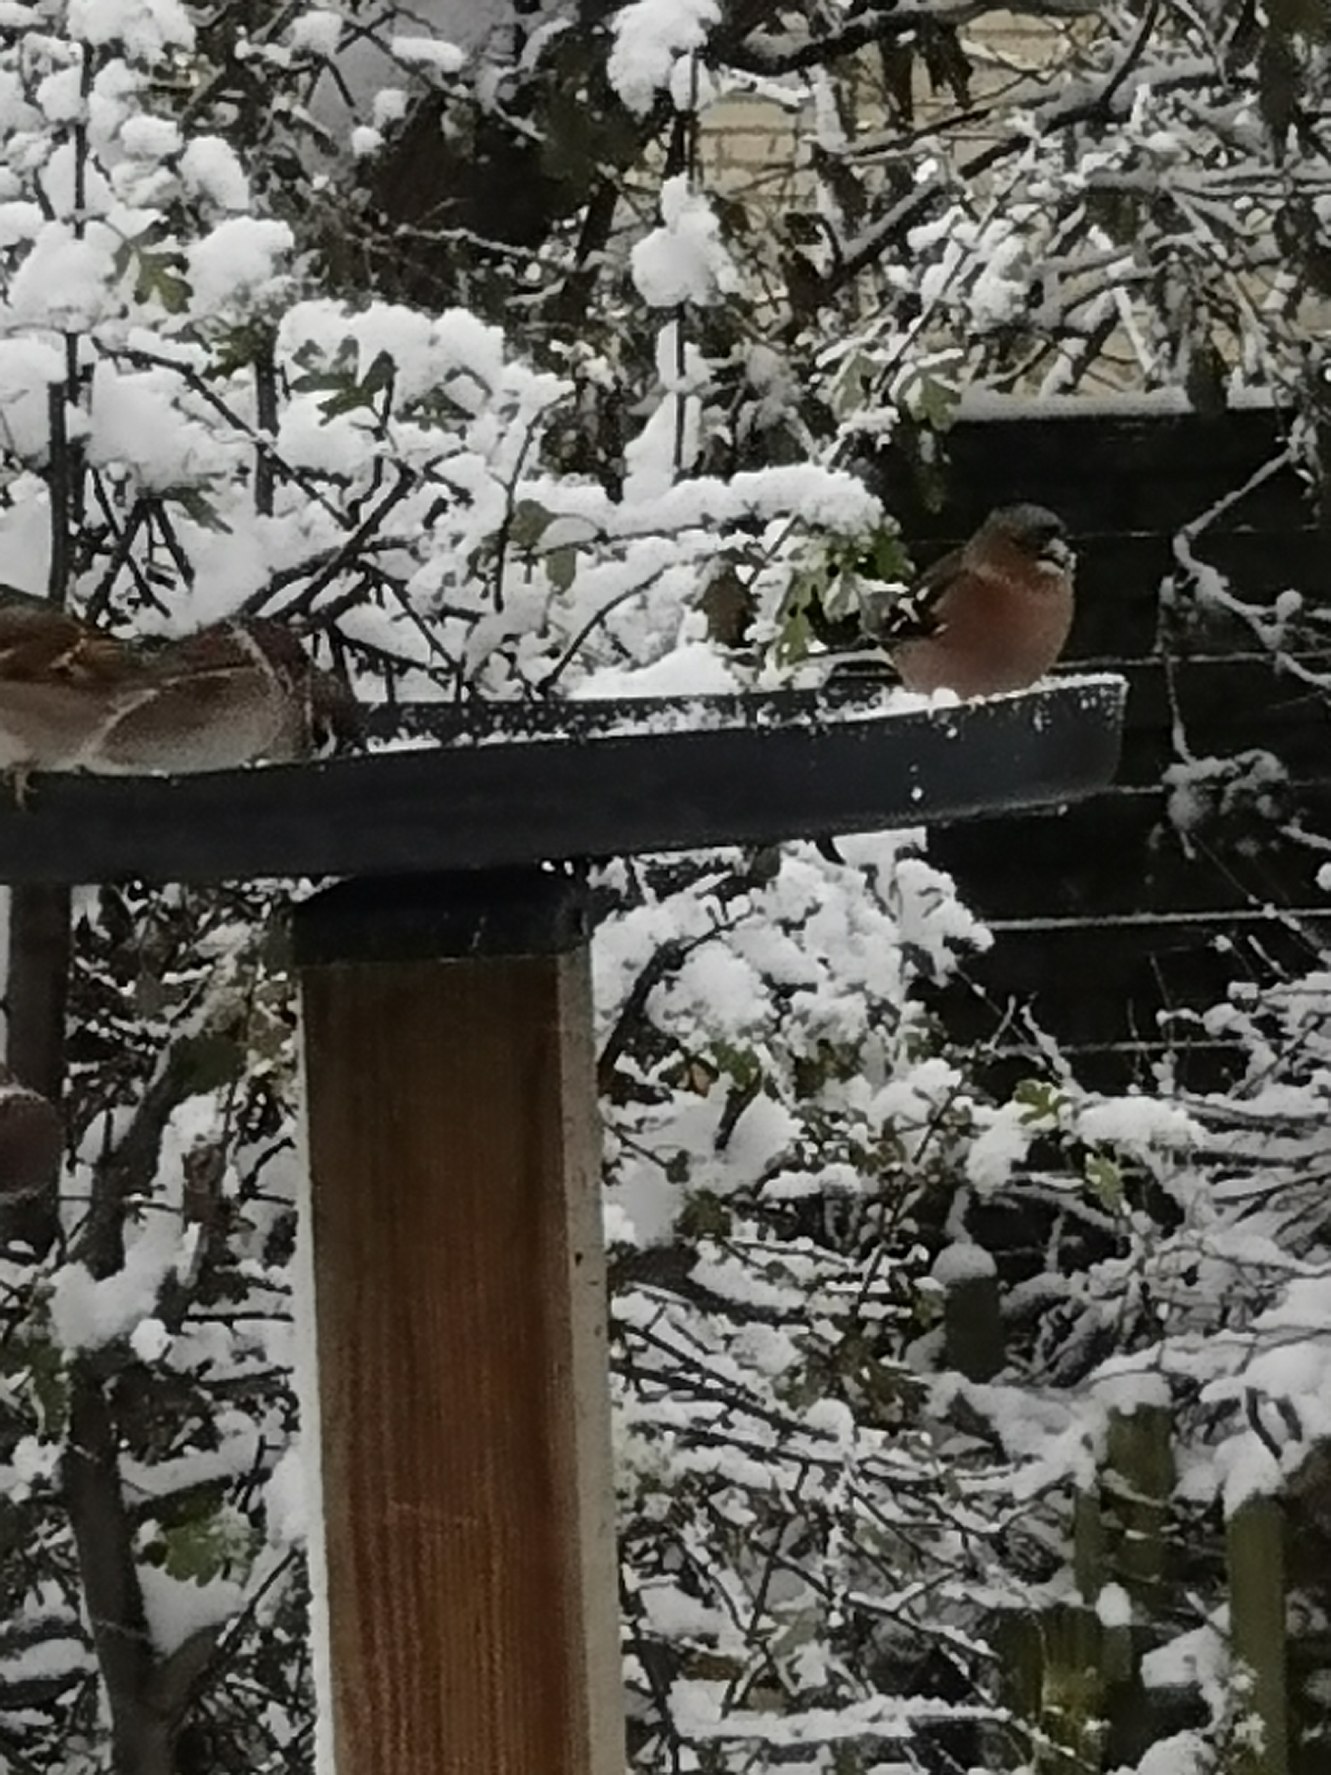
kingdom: Animalia
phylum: Chordata
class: Aves
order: Passeriformes
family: Fringillidae
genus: Fringilla
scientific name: Fringilla coelebs
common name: Bogfinke
